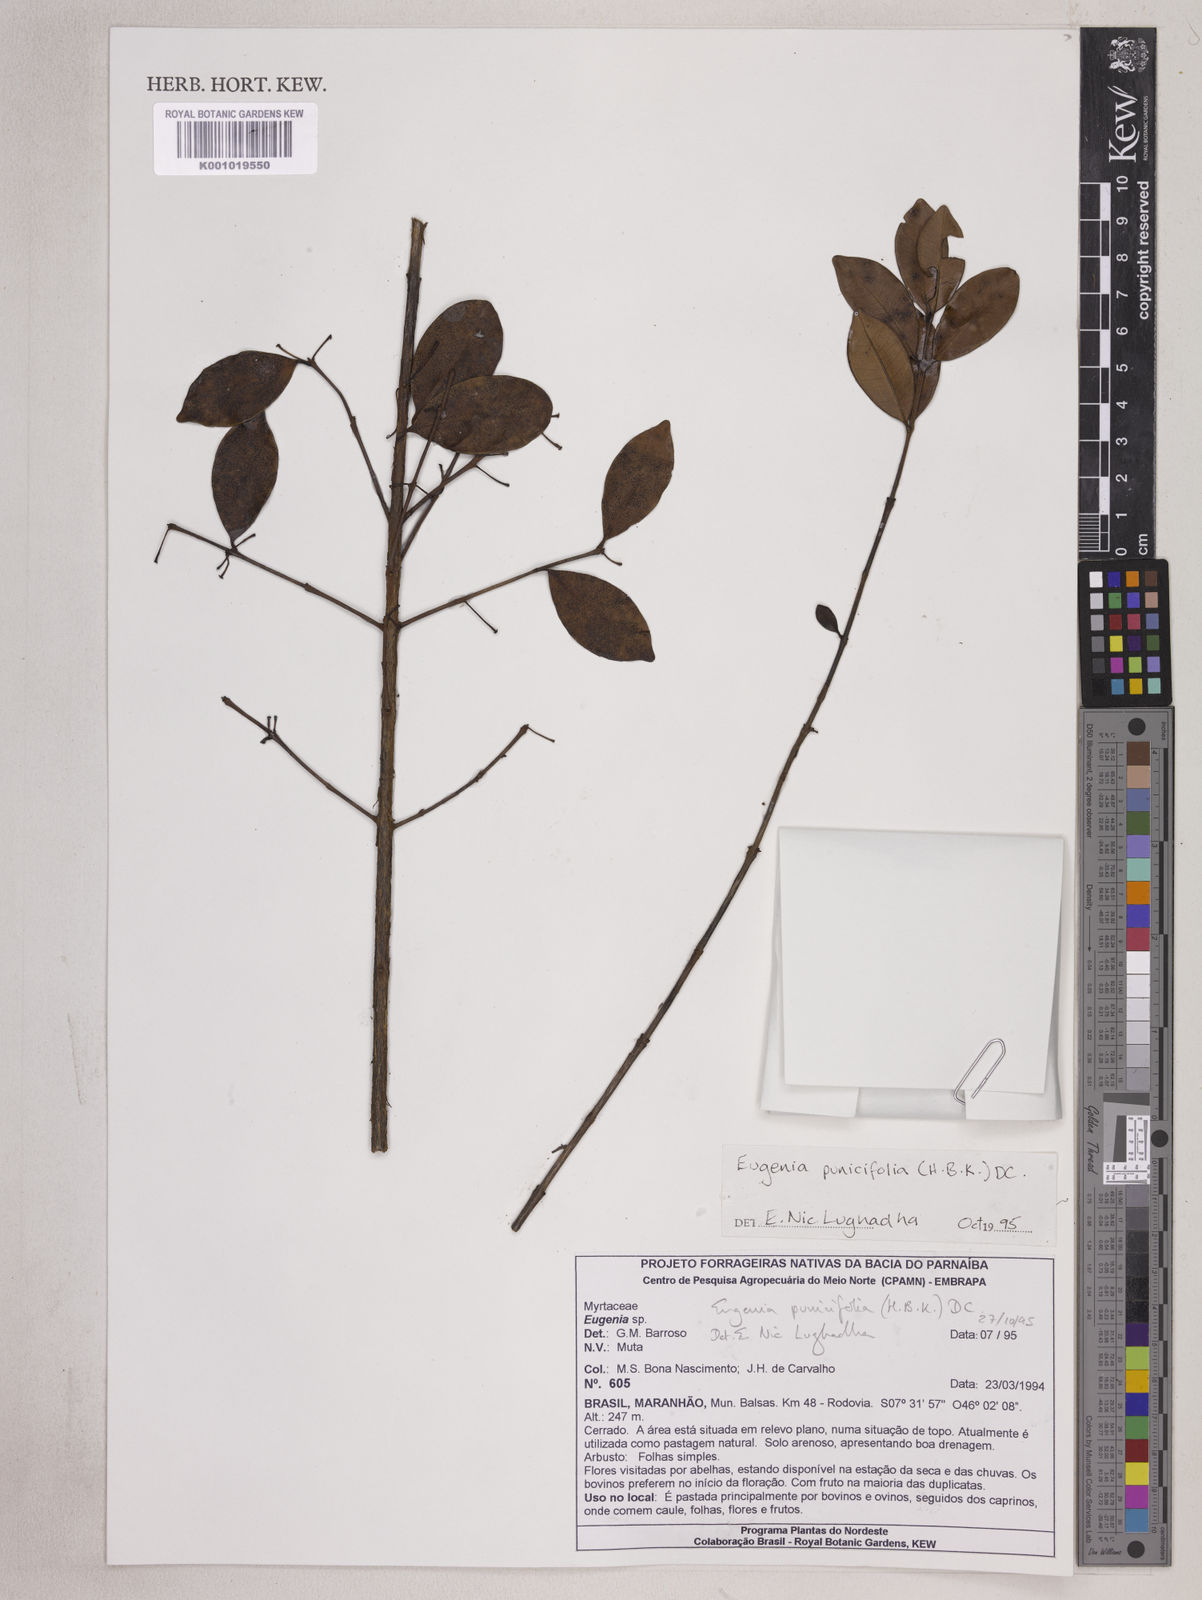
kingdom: Plantae
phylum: Tracheophyta
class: Magnoliopsida
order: Myrtales
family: Myrtaceae
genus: Eugenia
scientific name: Eugenia punicifolia
